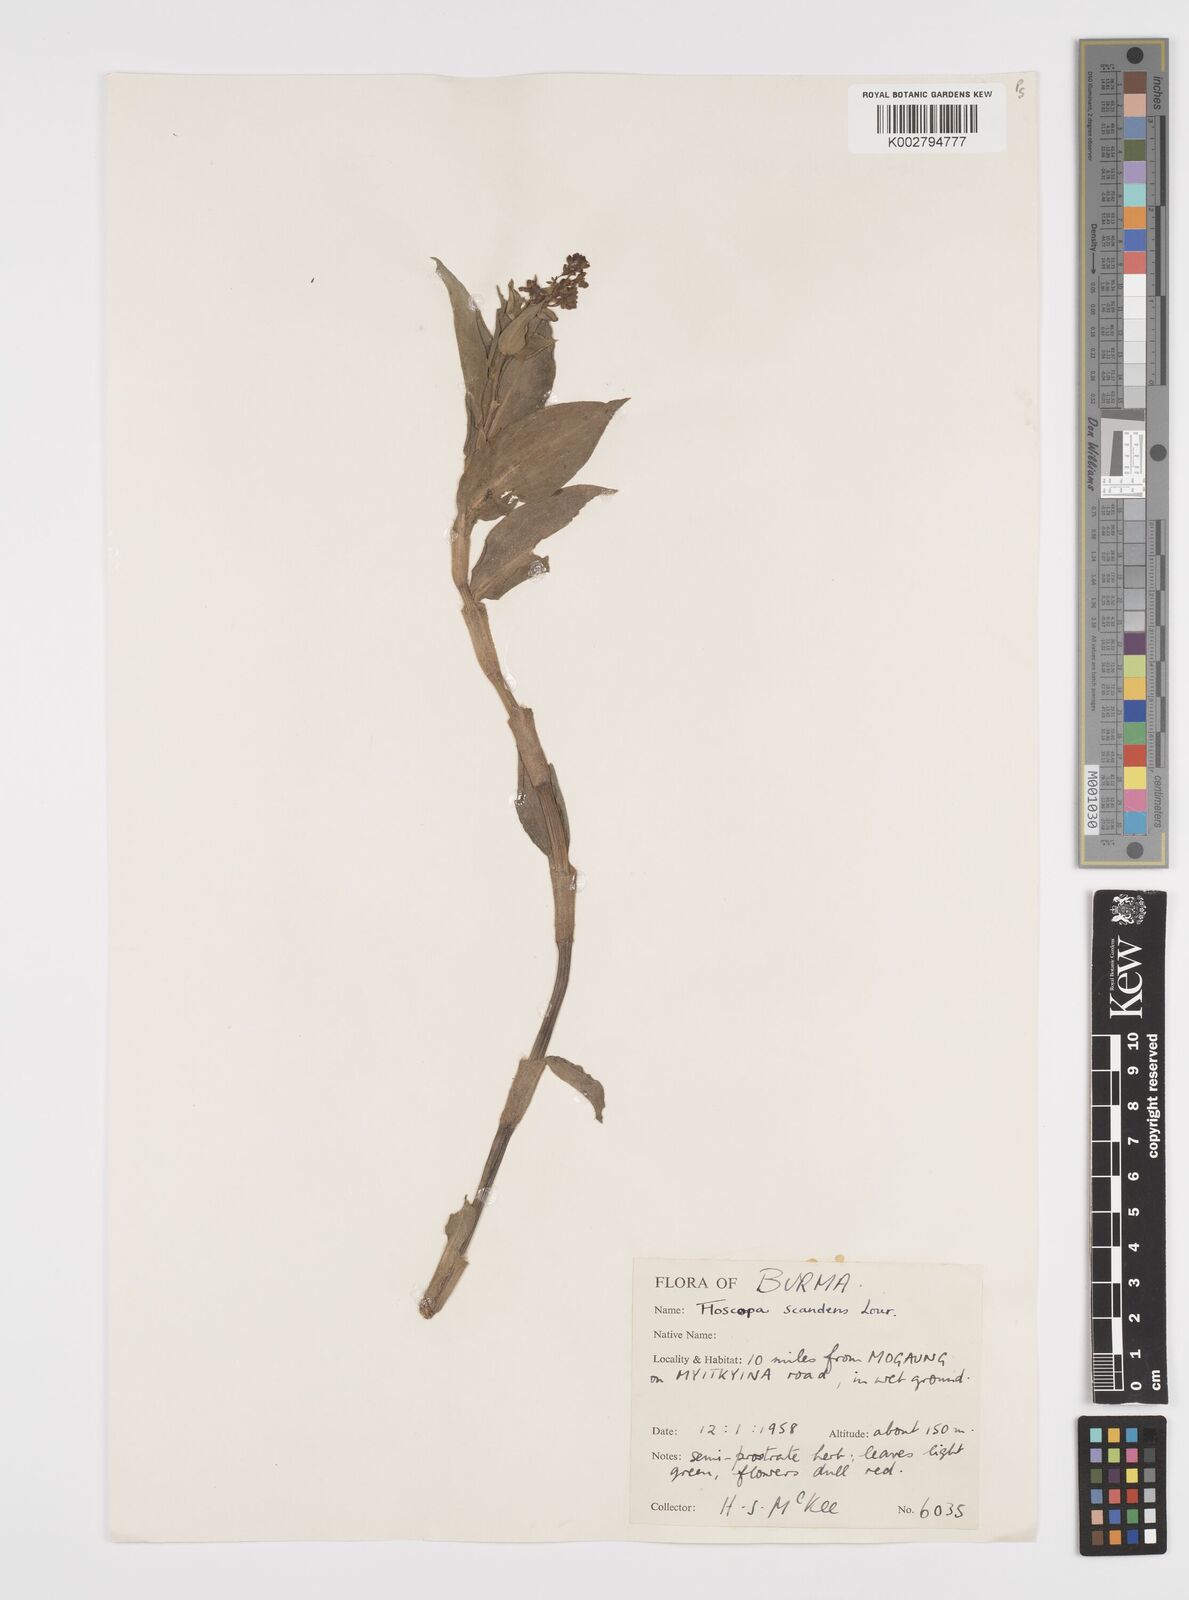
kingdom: Plantae
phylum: Tracheophyta
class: Liliopsida
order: Commelinales
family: Commelinaceae
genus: Floscopa
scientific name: Floscopa scandens
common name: Climbing flower cup
